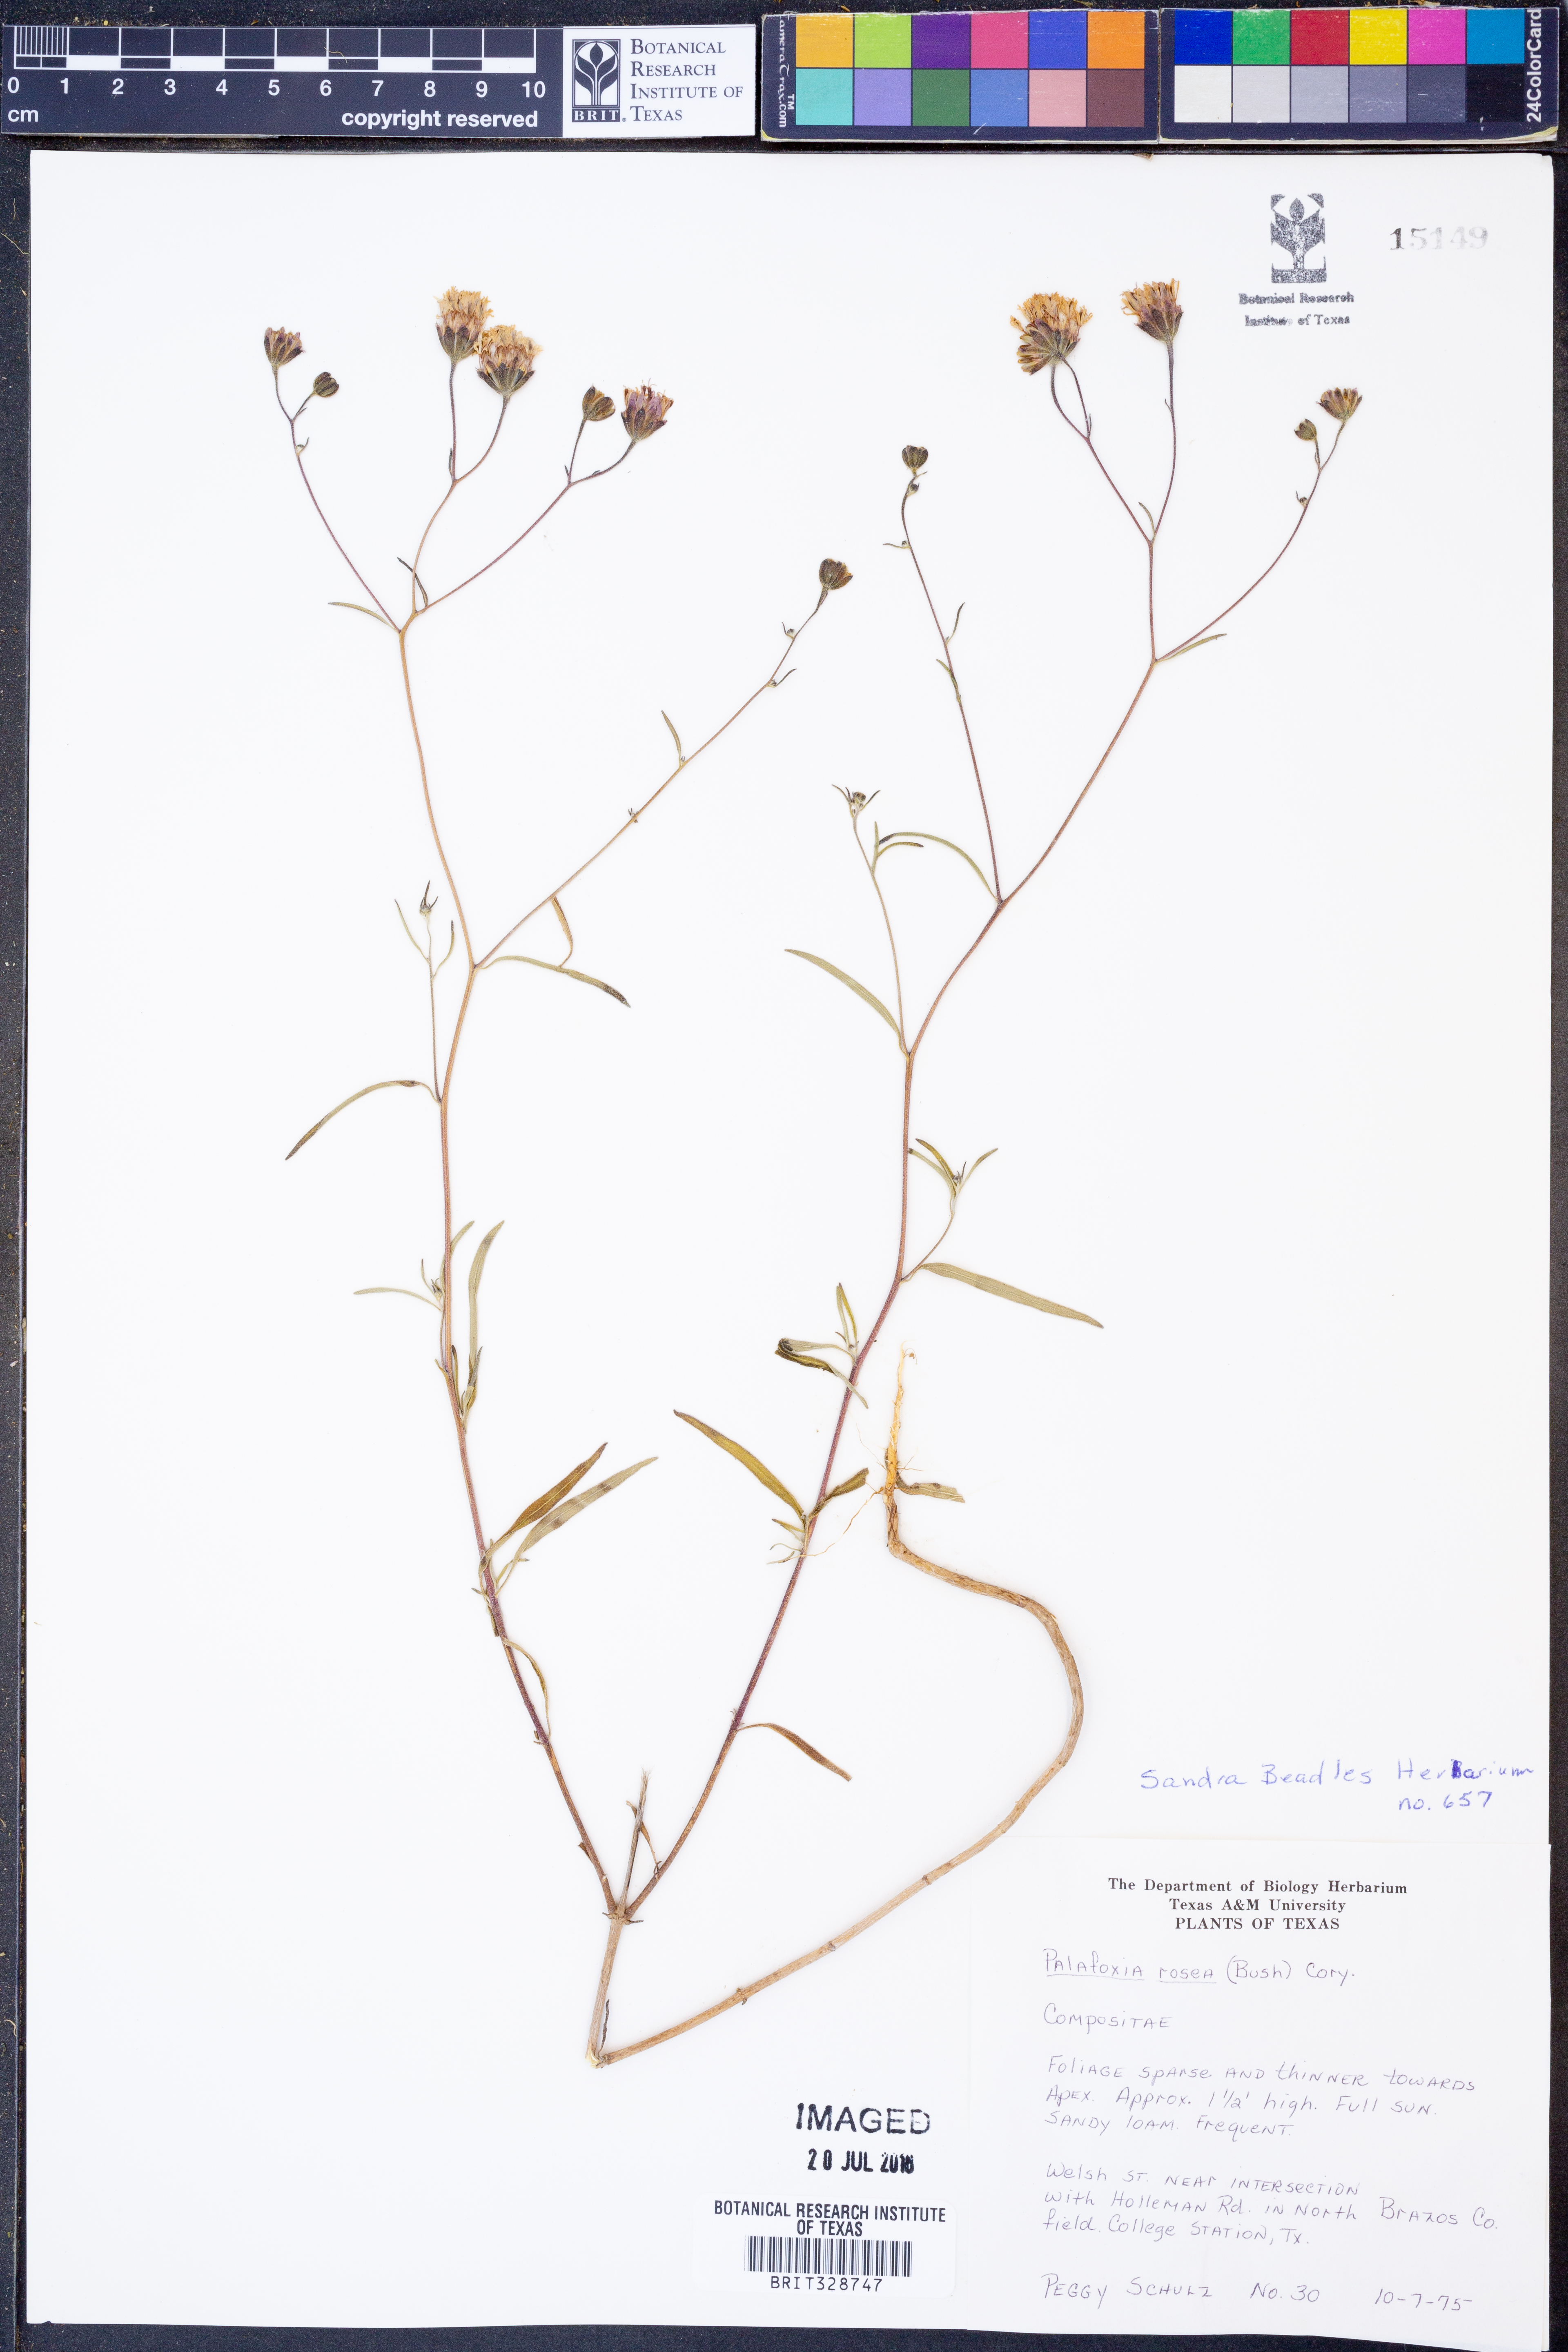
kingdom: Plantae
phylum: Tracheophyta
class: Magnoliopsida
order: Asterales
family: Asteraceae
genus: Palafoxia
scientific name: Palafoxia rosea
